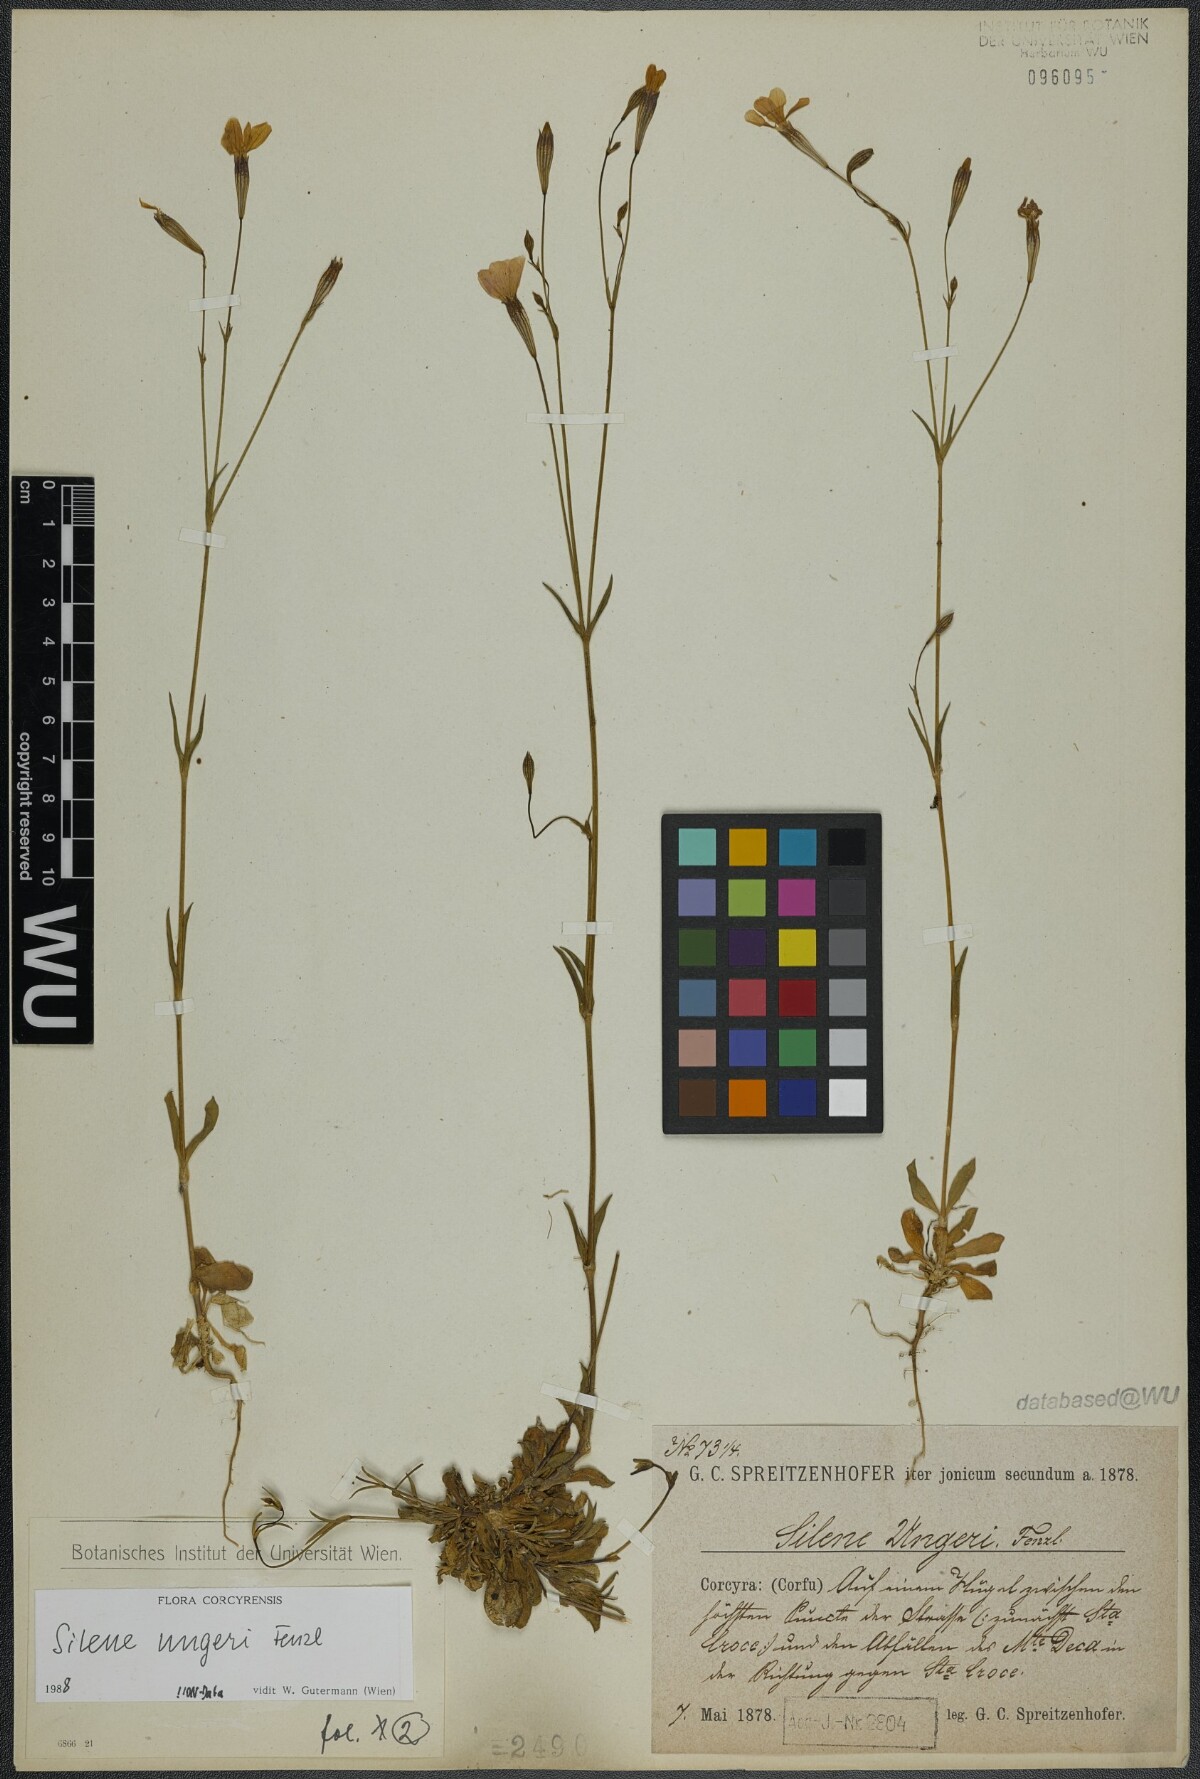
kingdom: Plantae
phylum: Tracheophyta
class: Magnoliopsida
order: Caryophyllales
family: Caryophyllaceae
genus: Silene
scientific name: Silene ungeri
